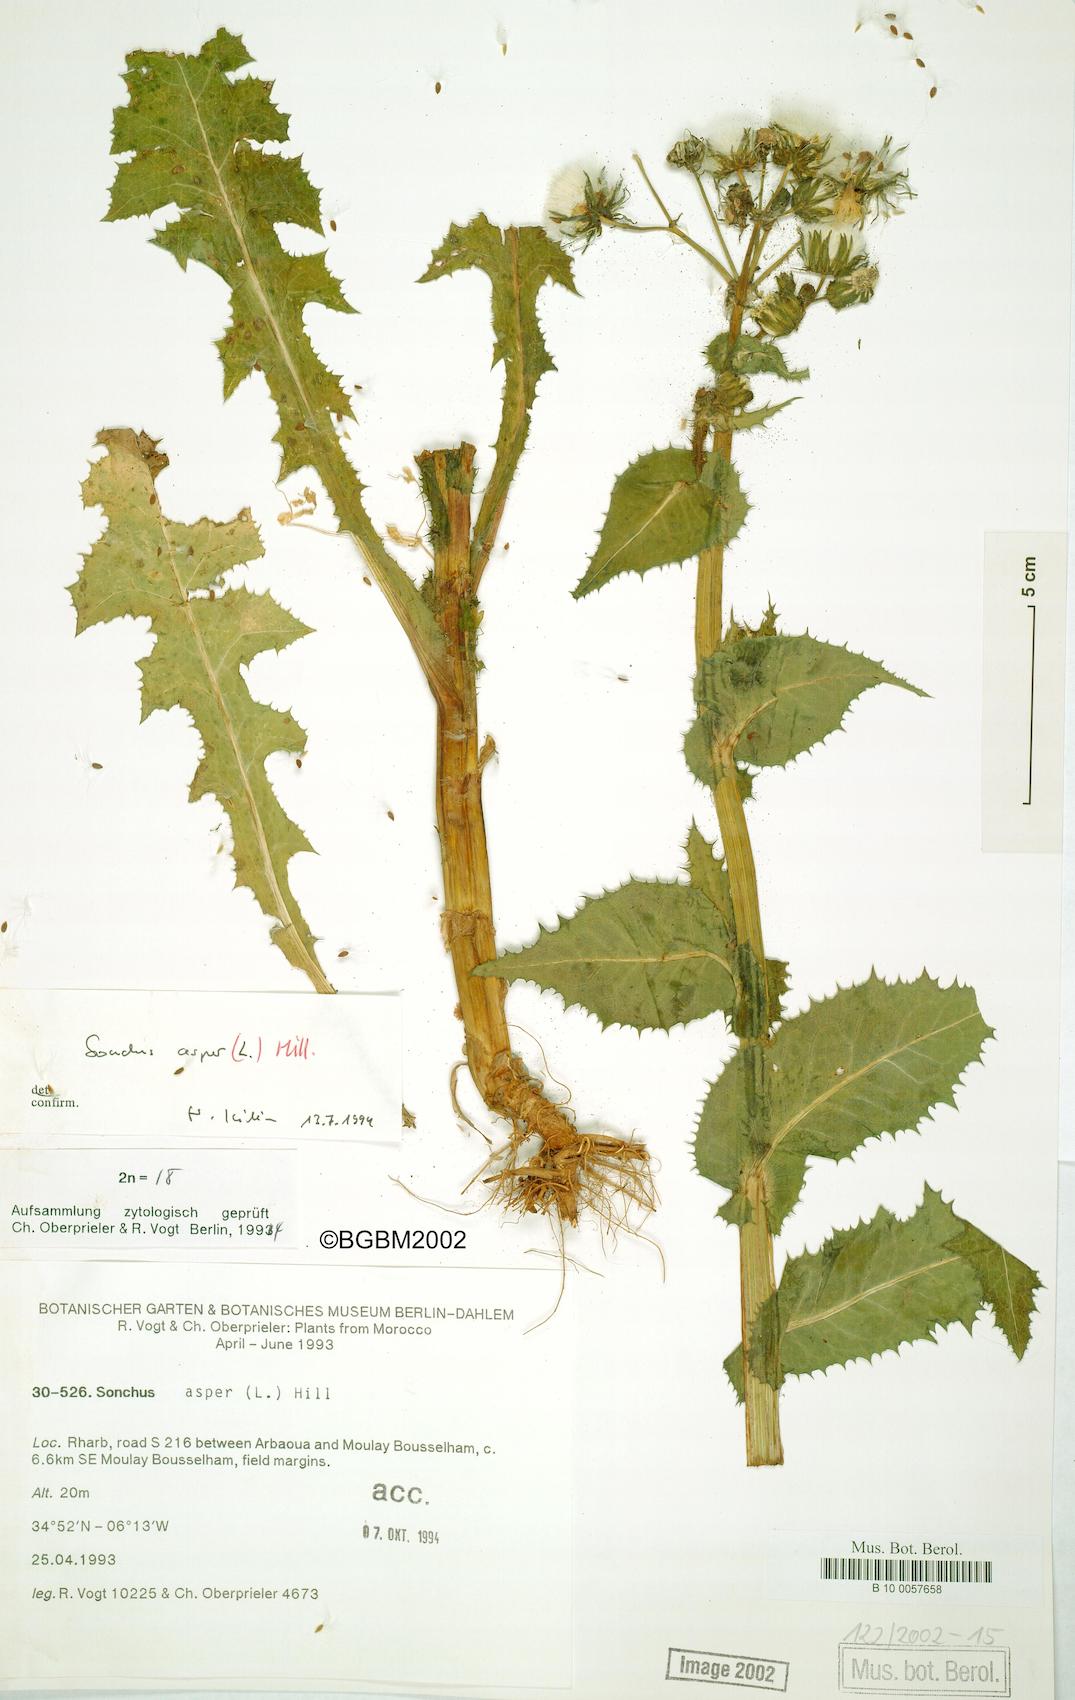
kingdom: Plantae
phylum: Tracheophyta
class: Magnoliopsida
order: Asterales
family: Asteraceae
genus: Sonchus
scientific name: Sonchus asper
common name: Prickly sow-thistle
